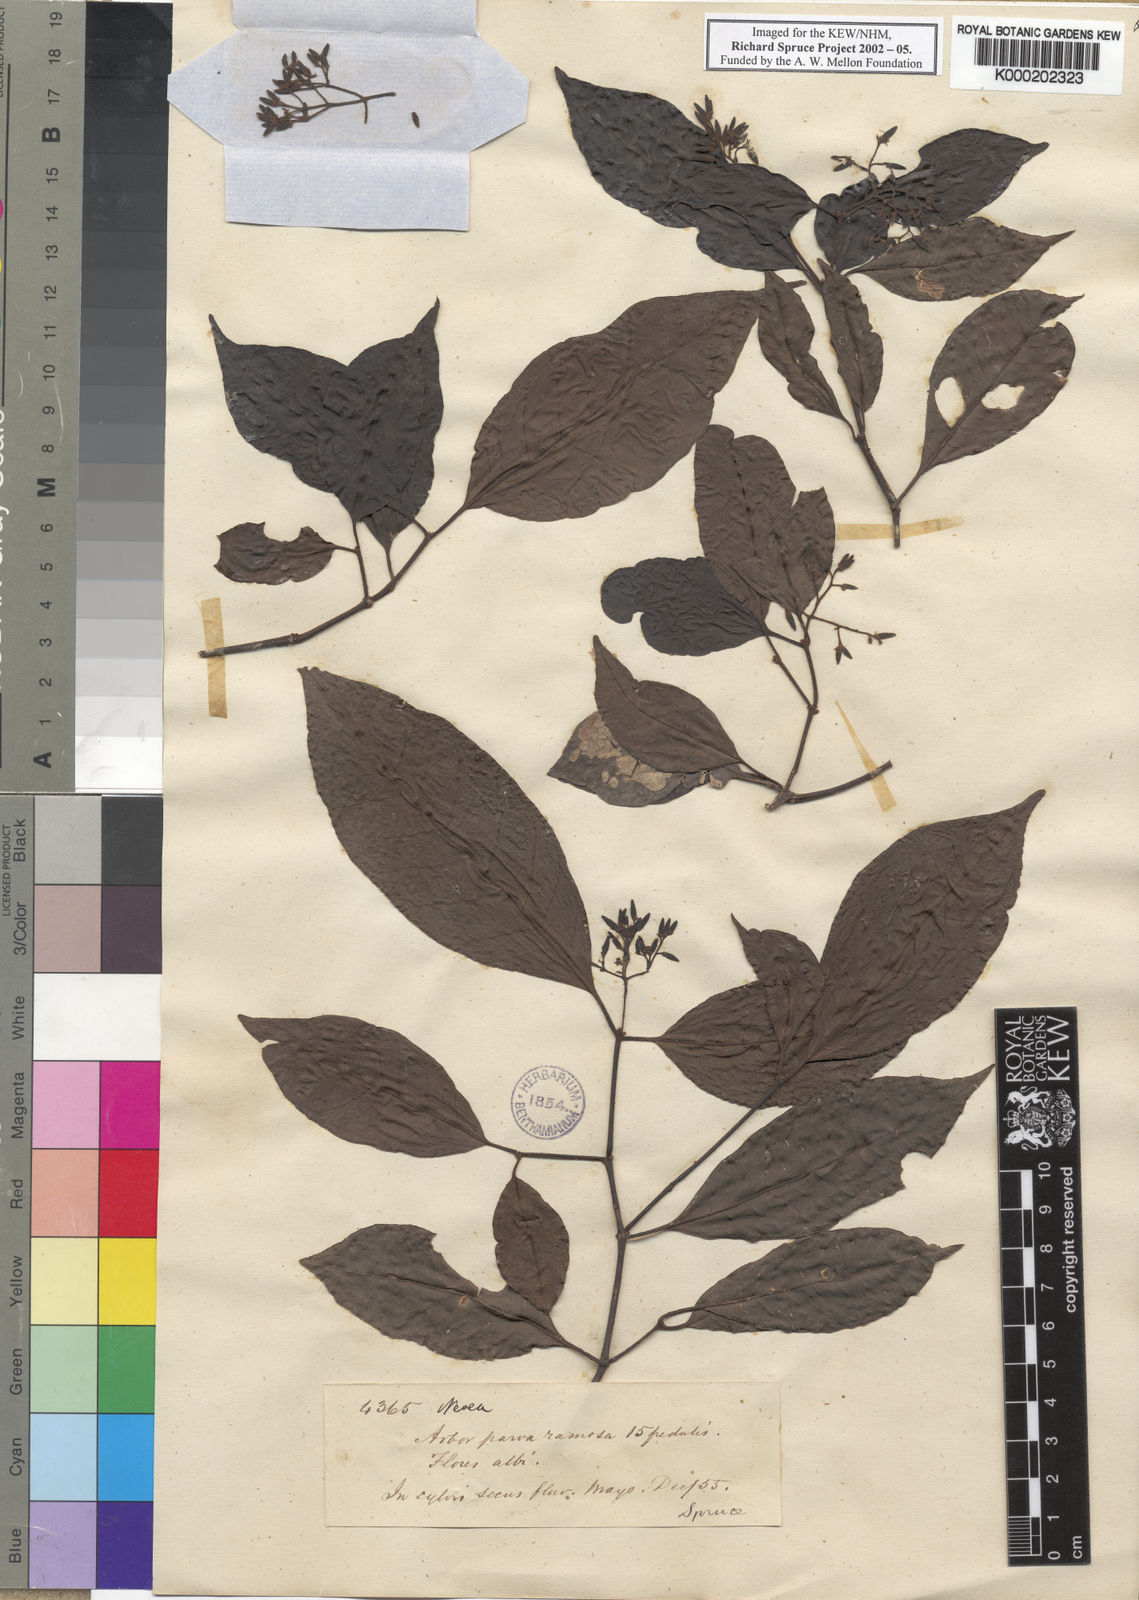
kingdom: Plantae
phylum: Tracheophyta
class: Magnoliopsida
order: Caryophyllales
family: Nyctaginaceae
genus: Neea
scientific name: Neea
